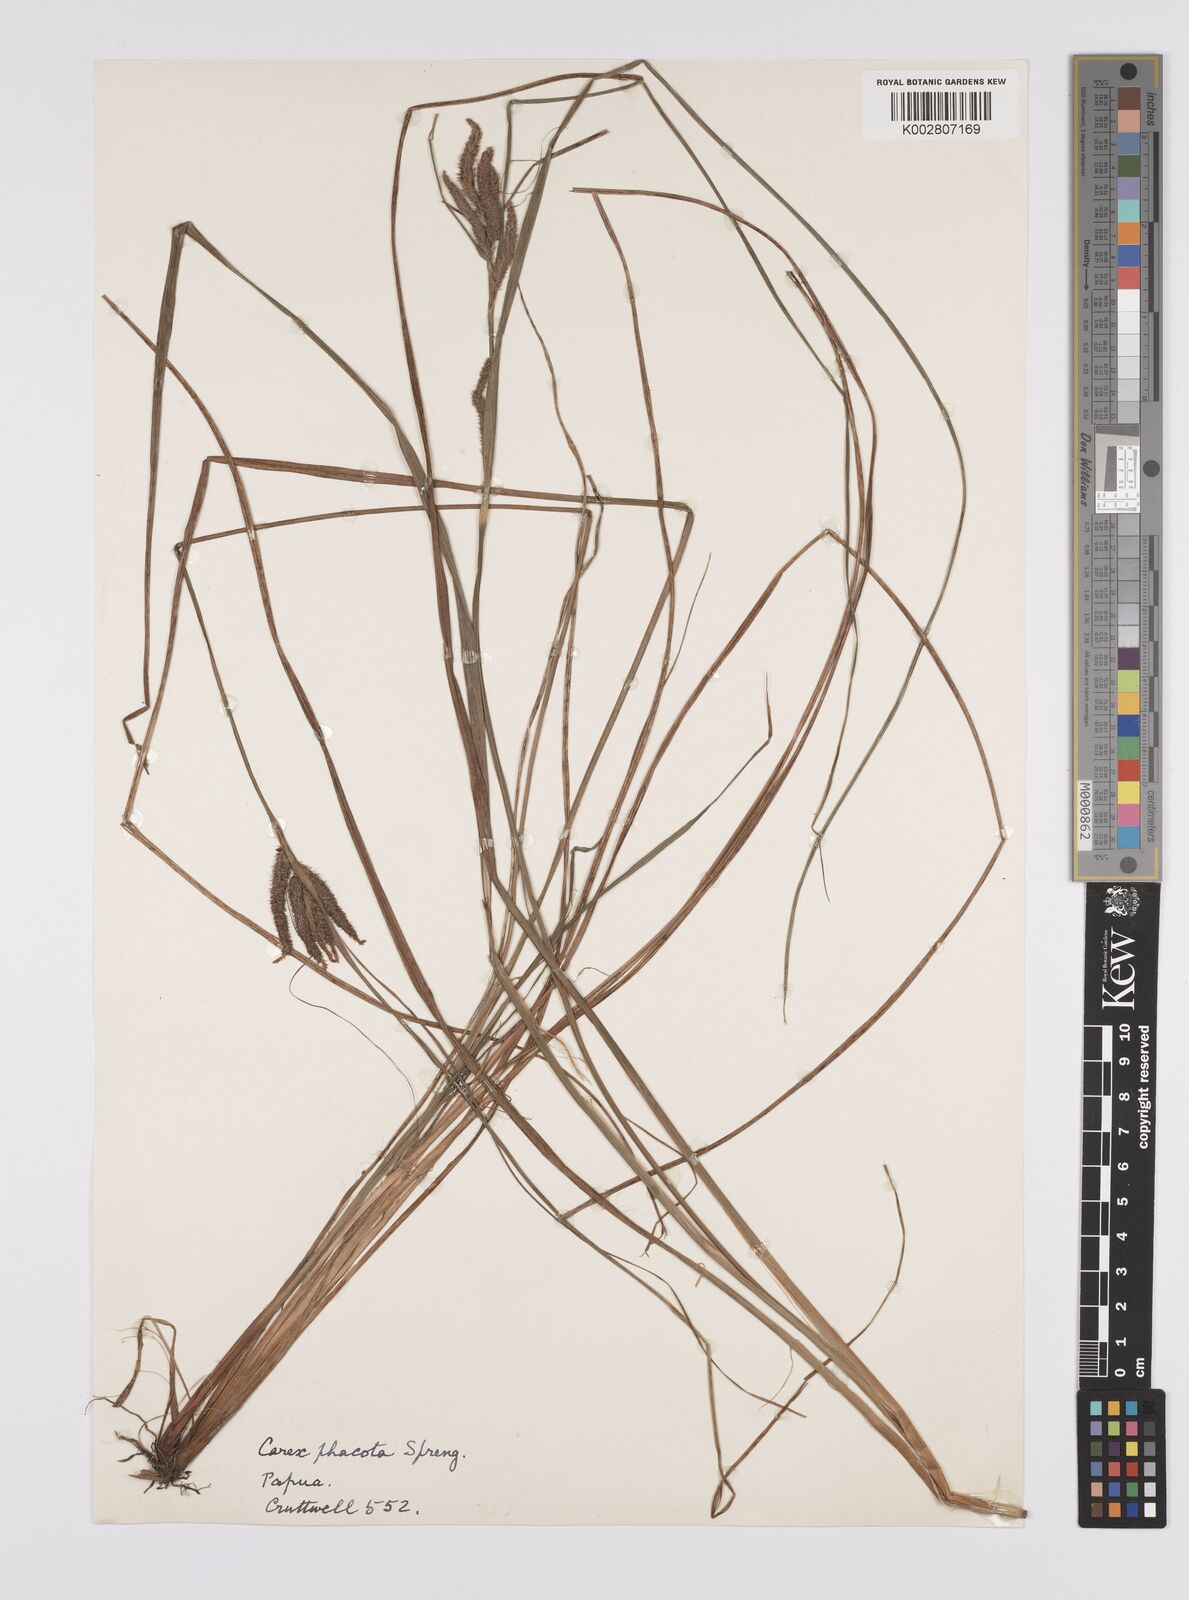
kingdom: Plantae
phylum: Tracheophyta
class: Liliopsida
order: Poales
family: Cyperaceae
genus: Carex
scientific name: Carex phacota
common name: Lakeshore sedge
